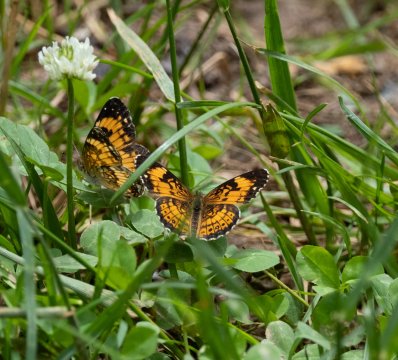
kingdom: Animalia
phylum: Arthropoda
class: Insecta
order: Lepidoptera
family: Nymphalidae
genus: Chlosyne
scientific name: Chlosyne nycteis
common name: Silvery Checkerspot
